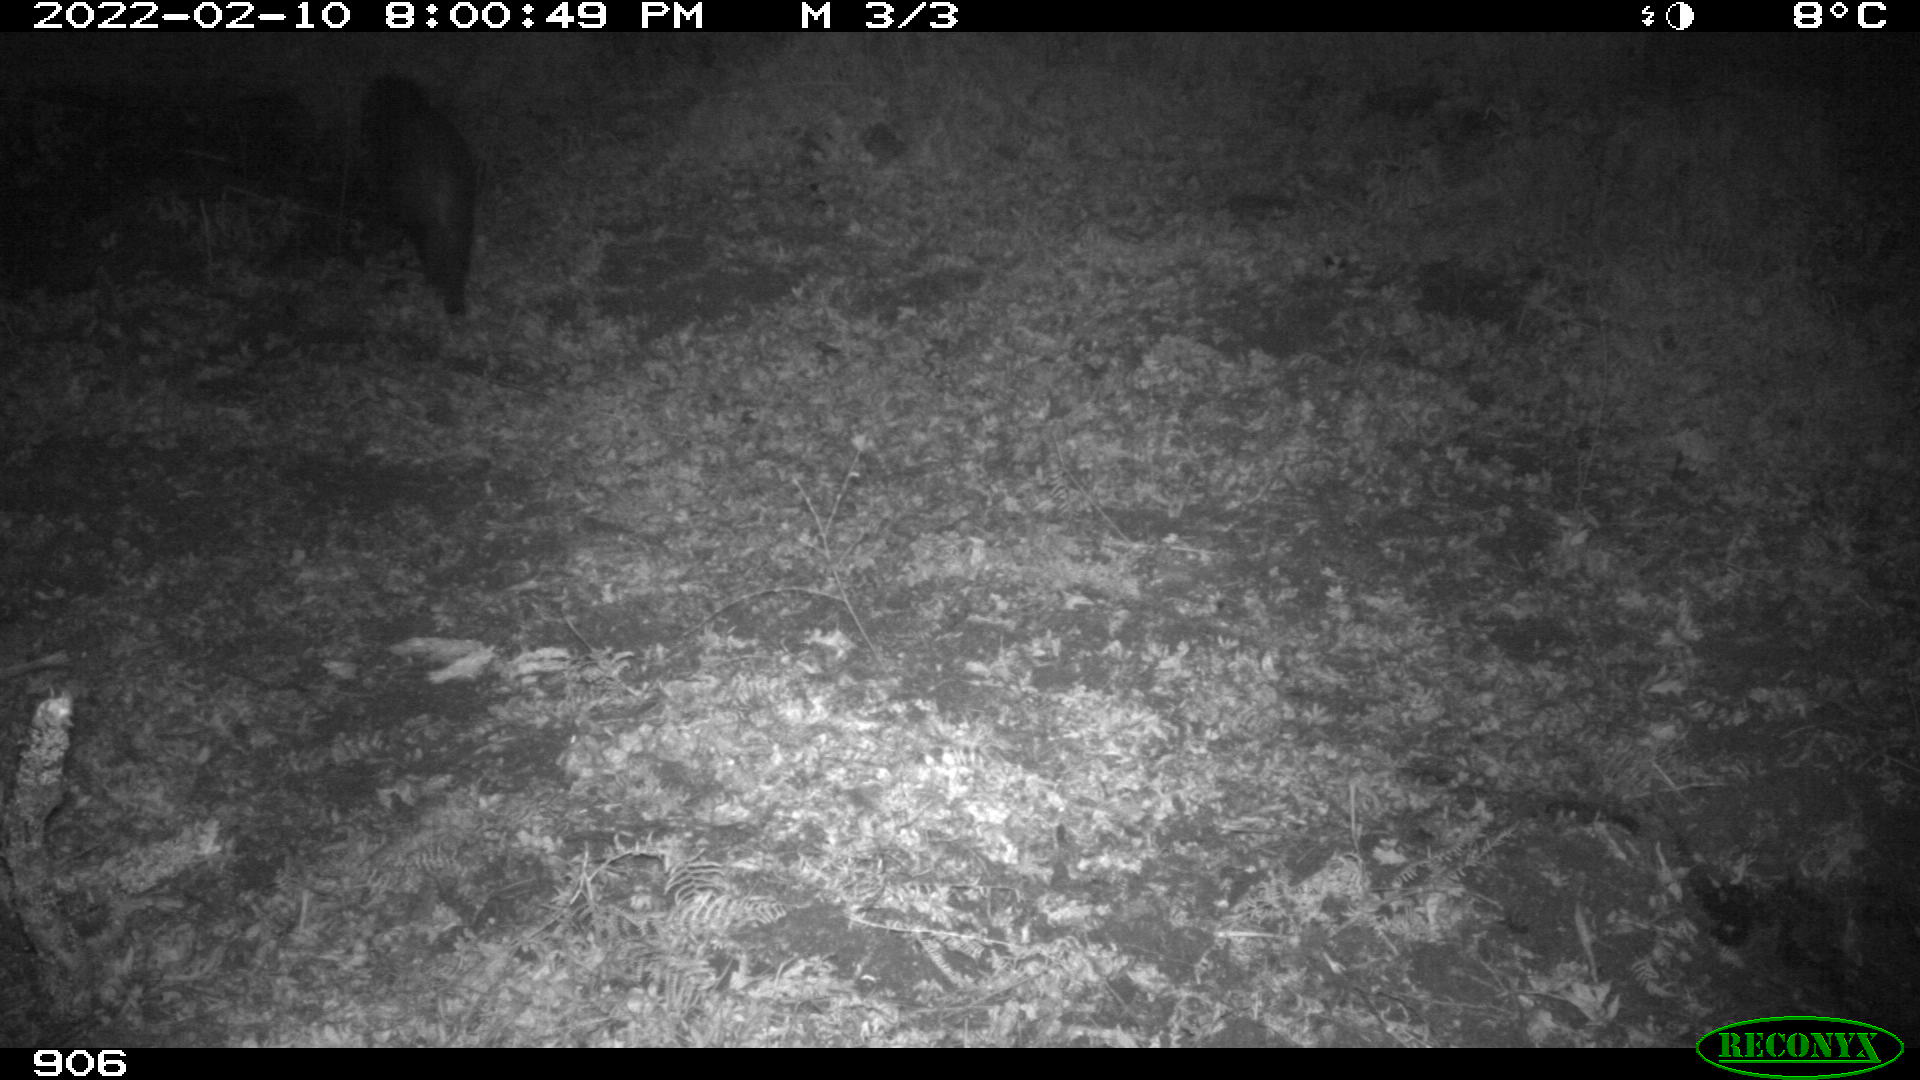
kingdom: Animalia
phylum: Chordata
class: Mammalia
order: Artiodactyla
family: Suidae
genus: Sus
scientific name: Sus scrofa
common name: Wild boar
